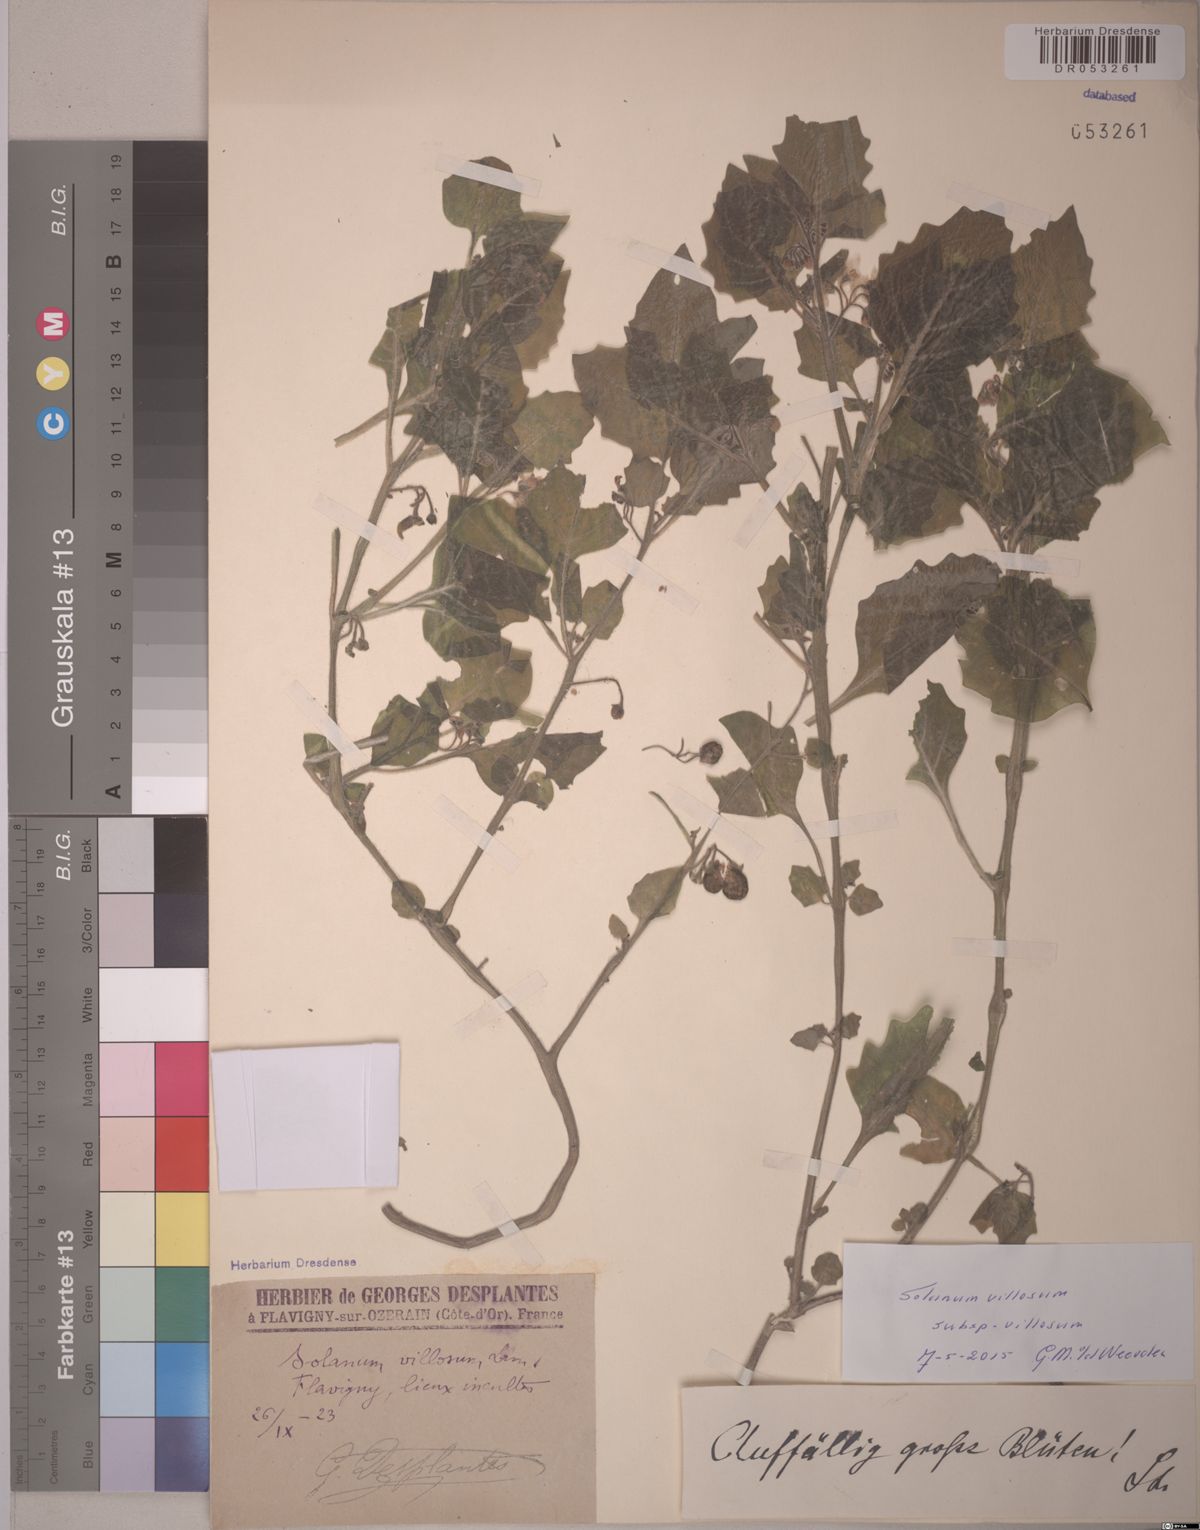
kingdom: Plantae
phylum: Tracheophyta
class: Magnoliopsida
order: Solanales
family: Solanaceae
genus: Solanum
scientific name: Solanum villosum
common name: Red nightshade
